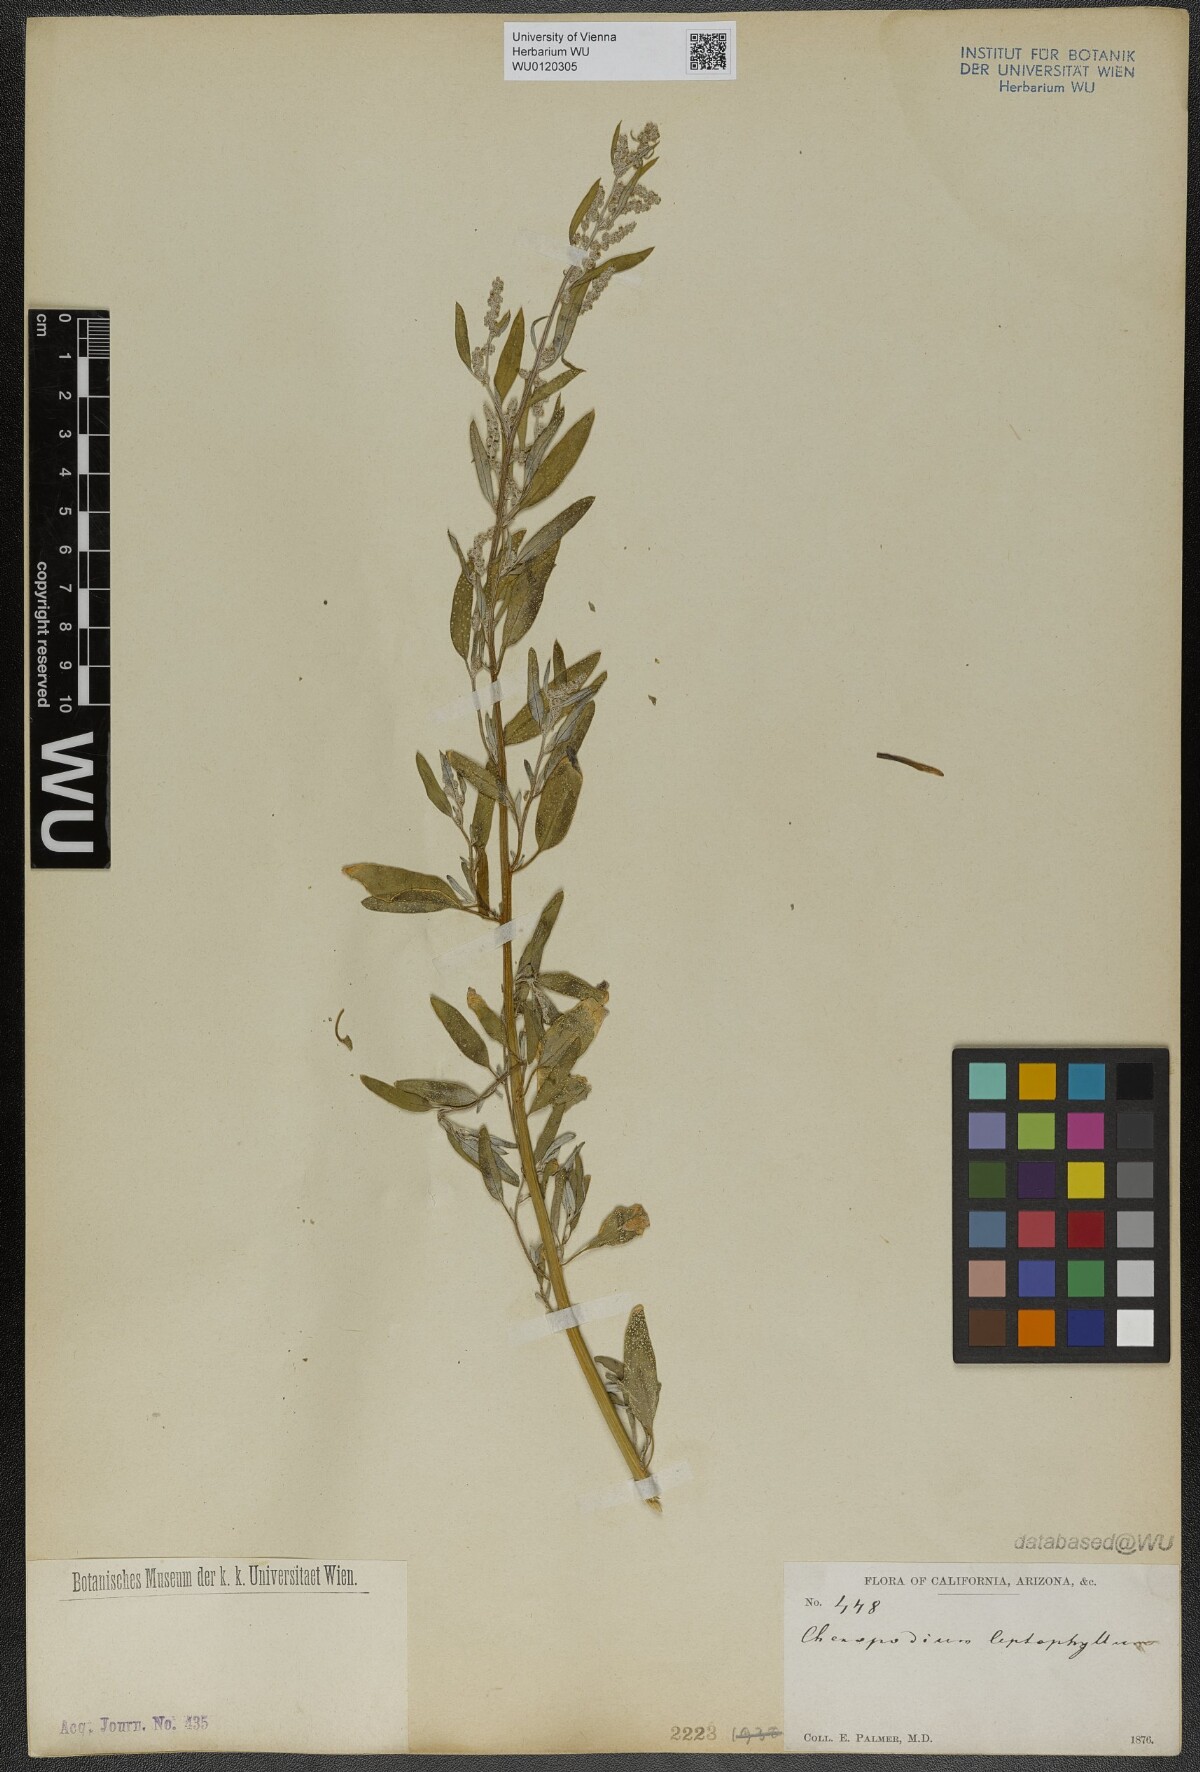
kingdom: Plantae
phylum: Tracheophyta
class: Magnoliopsida
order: Caryophyllales
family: Amaranthaceae
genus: Chenopodium
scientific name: Chenopodium leptophyllum
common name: Narrow-leaf goosefoot
